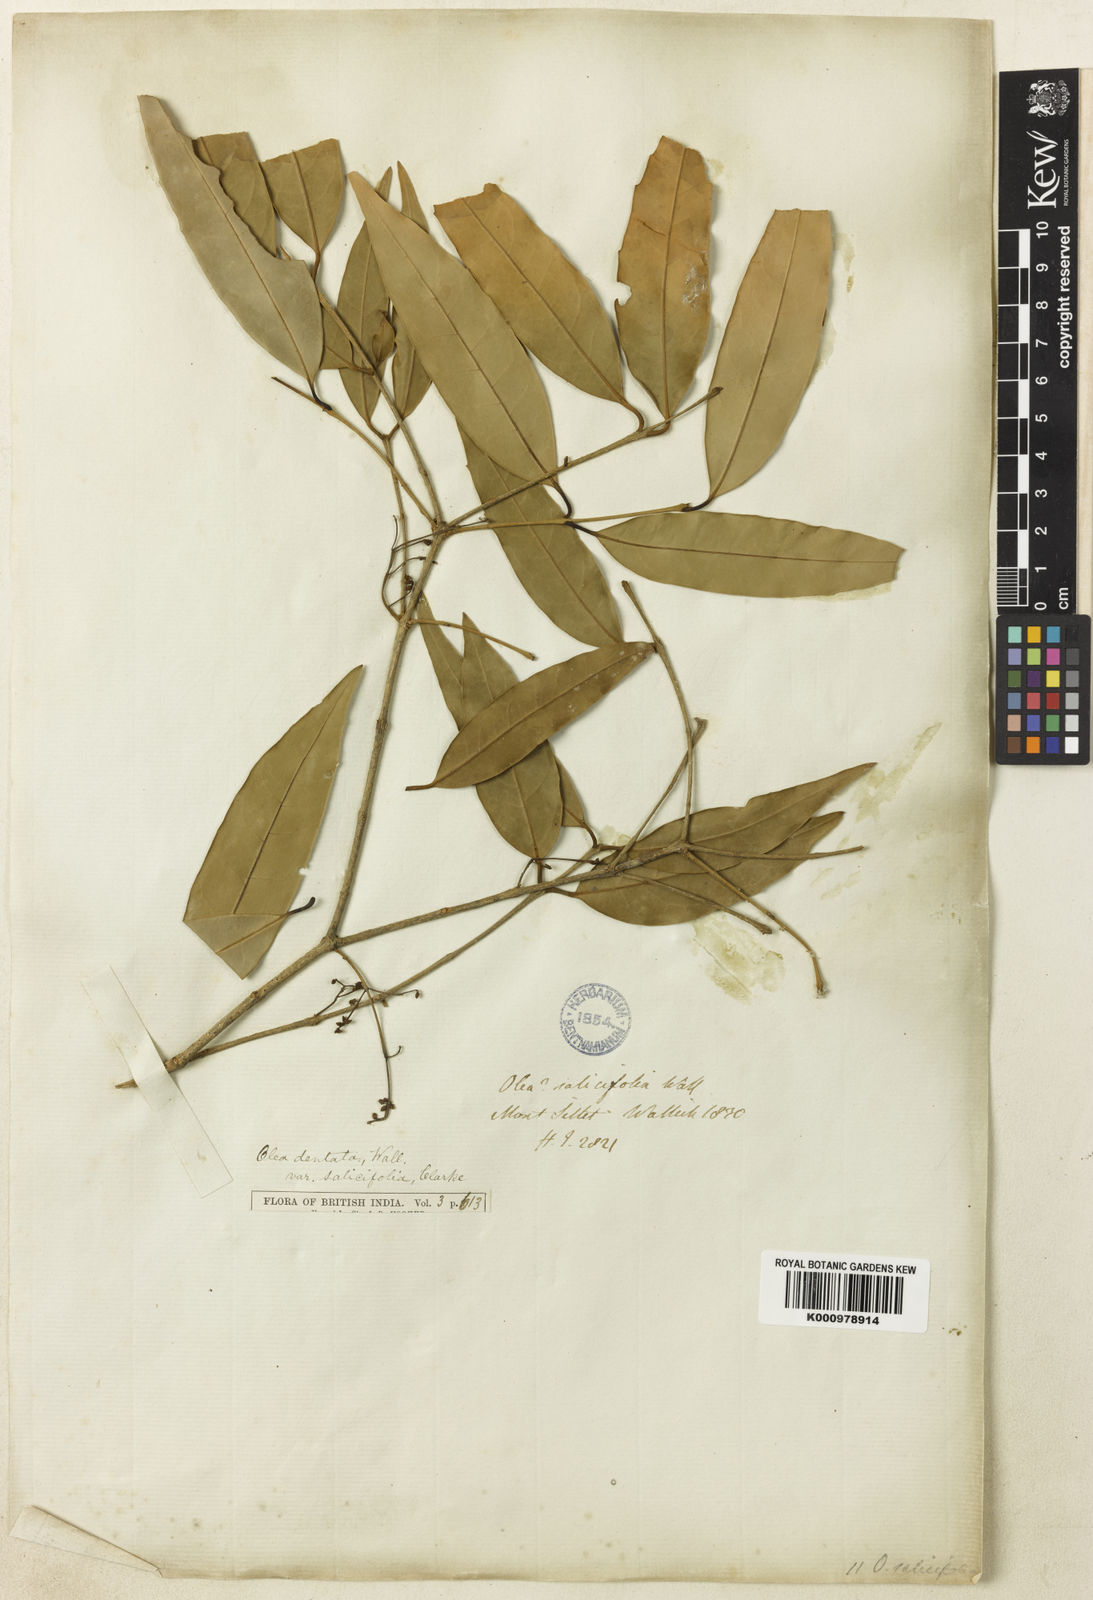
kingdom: Plantae
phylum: Tracheophyta
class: Magnoliopsida
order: Lamiales
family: Oleaceae
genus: Olea
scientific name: Olea
